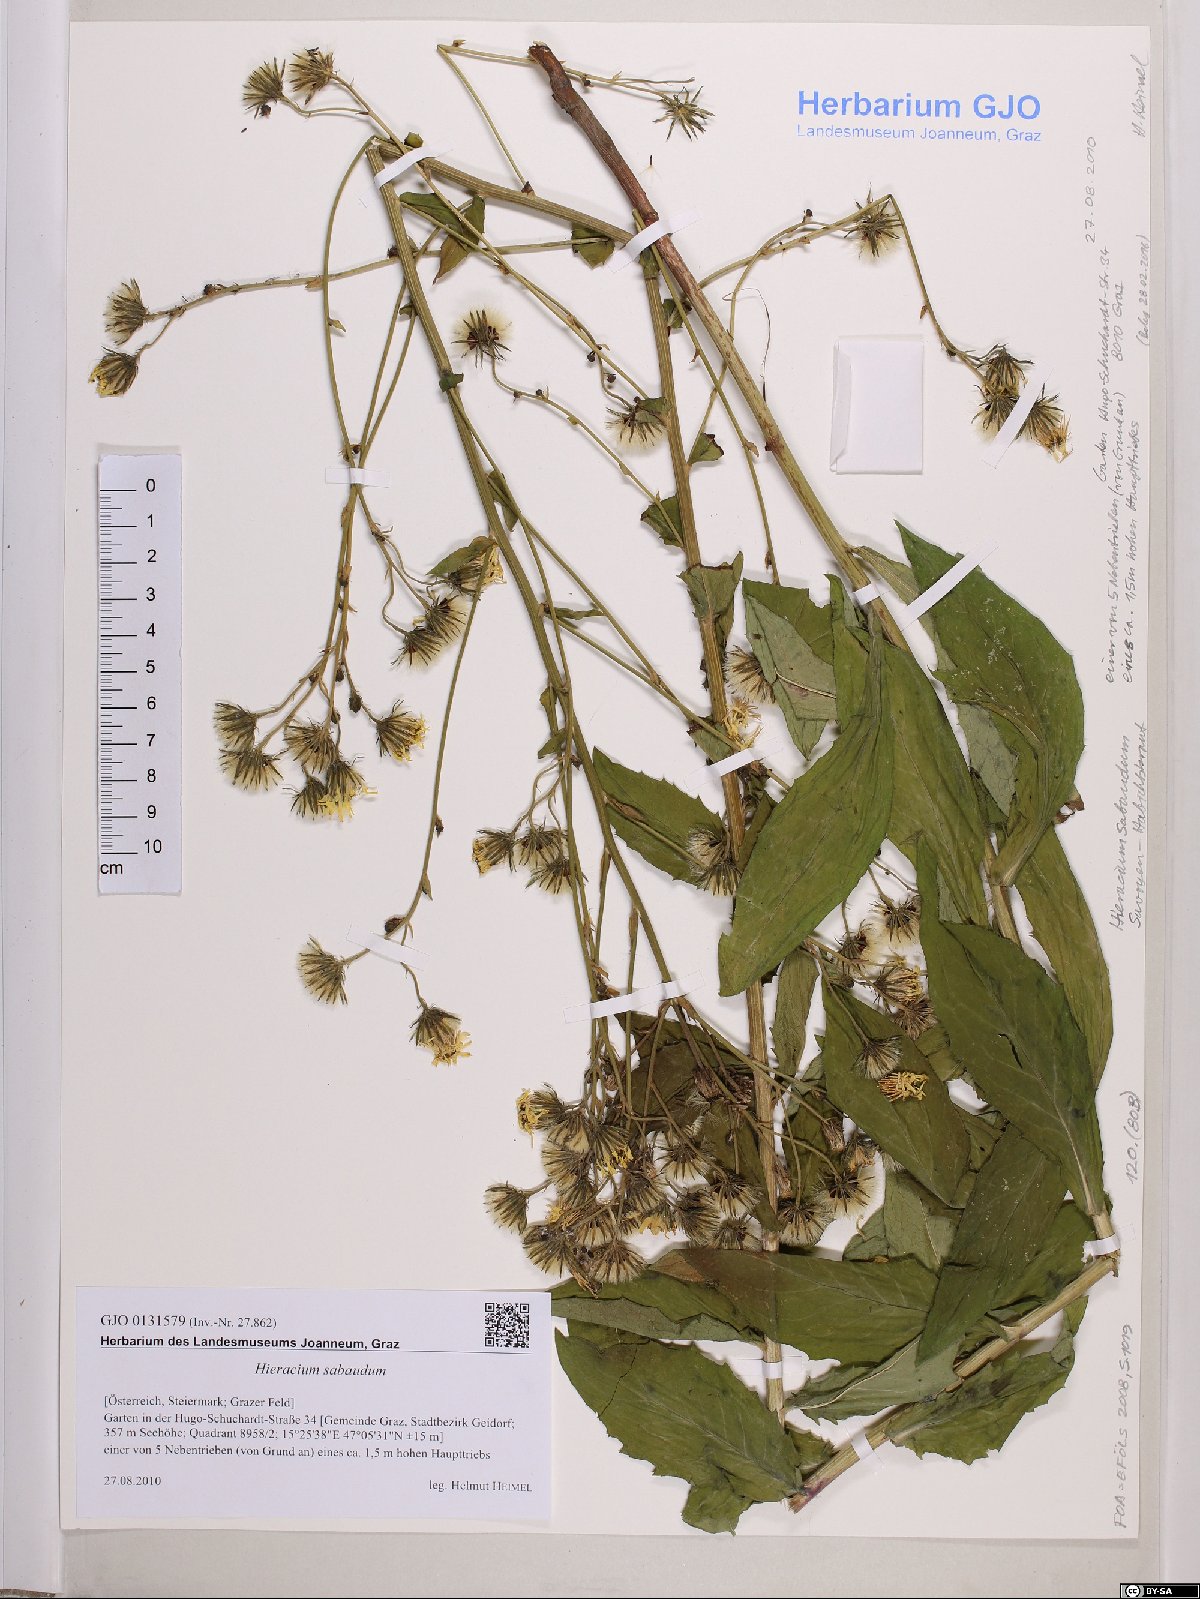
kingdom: Plantae
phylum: Tracheophyta
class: Magnoliopsida
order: Asterales
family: Asteraceae
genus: Hieracium
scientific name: Hieracium sabaudum
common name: New england hawkweed
